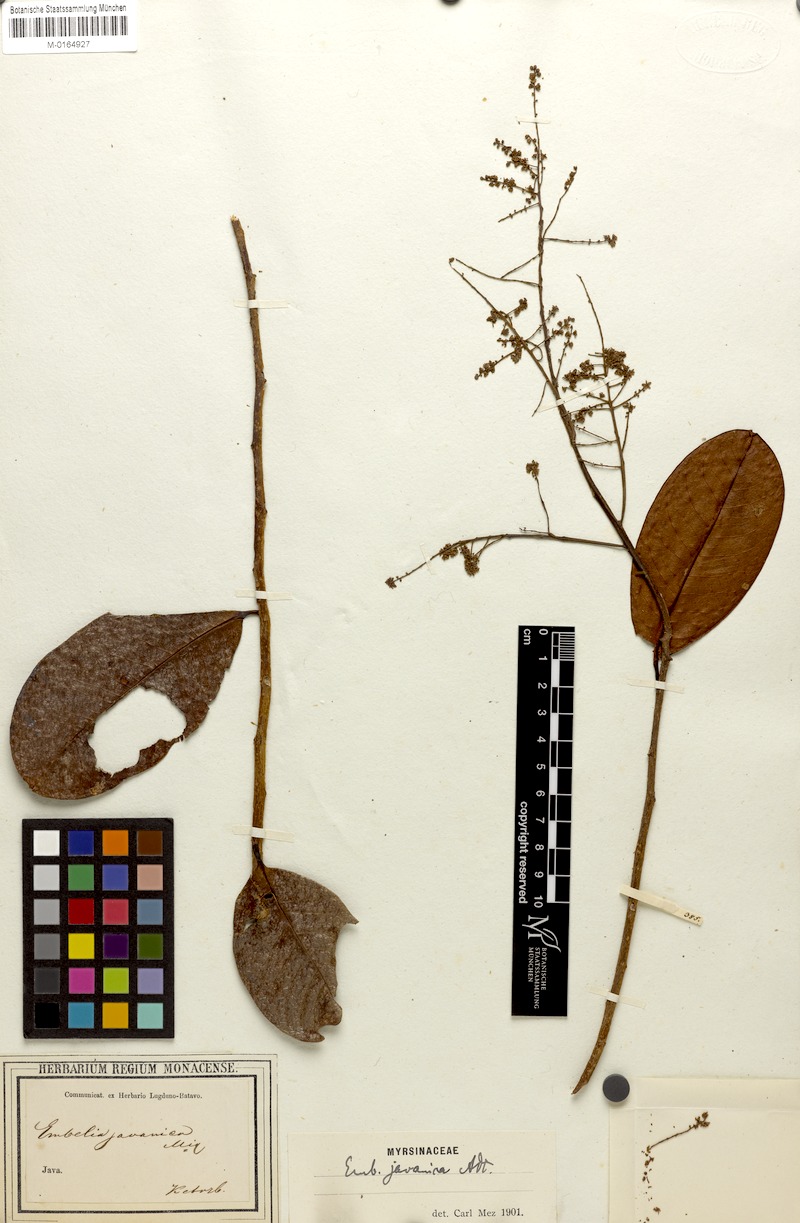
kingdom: Plantae
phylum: Tracheophyta
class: Magnoliopsida
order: Ericales
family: Primulaceae
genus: Embelia
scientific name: Embelia javanica
